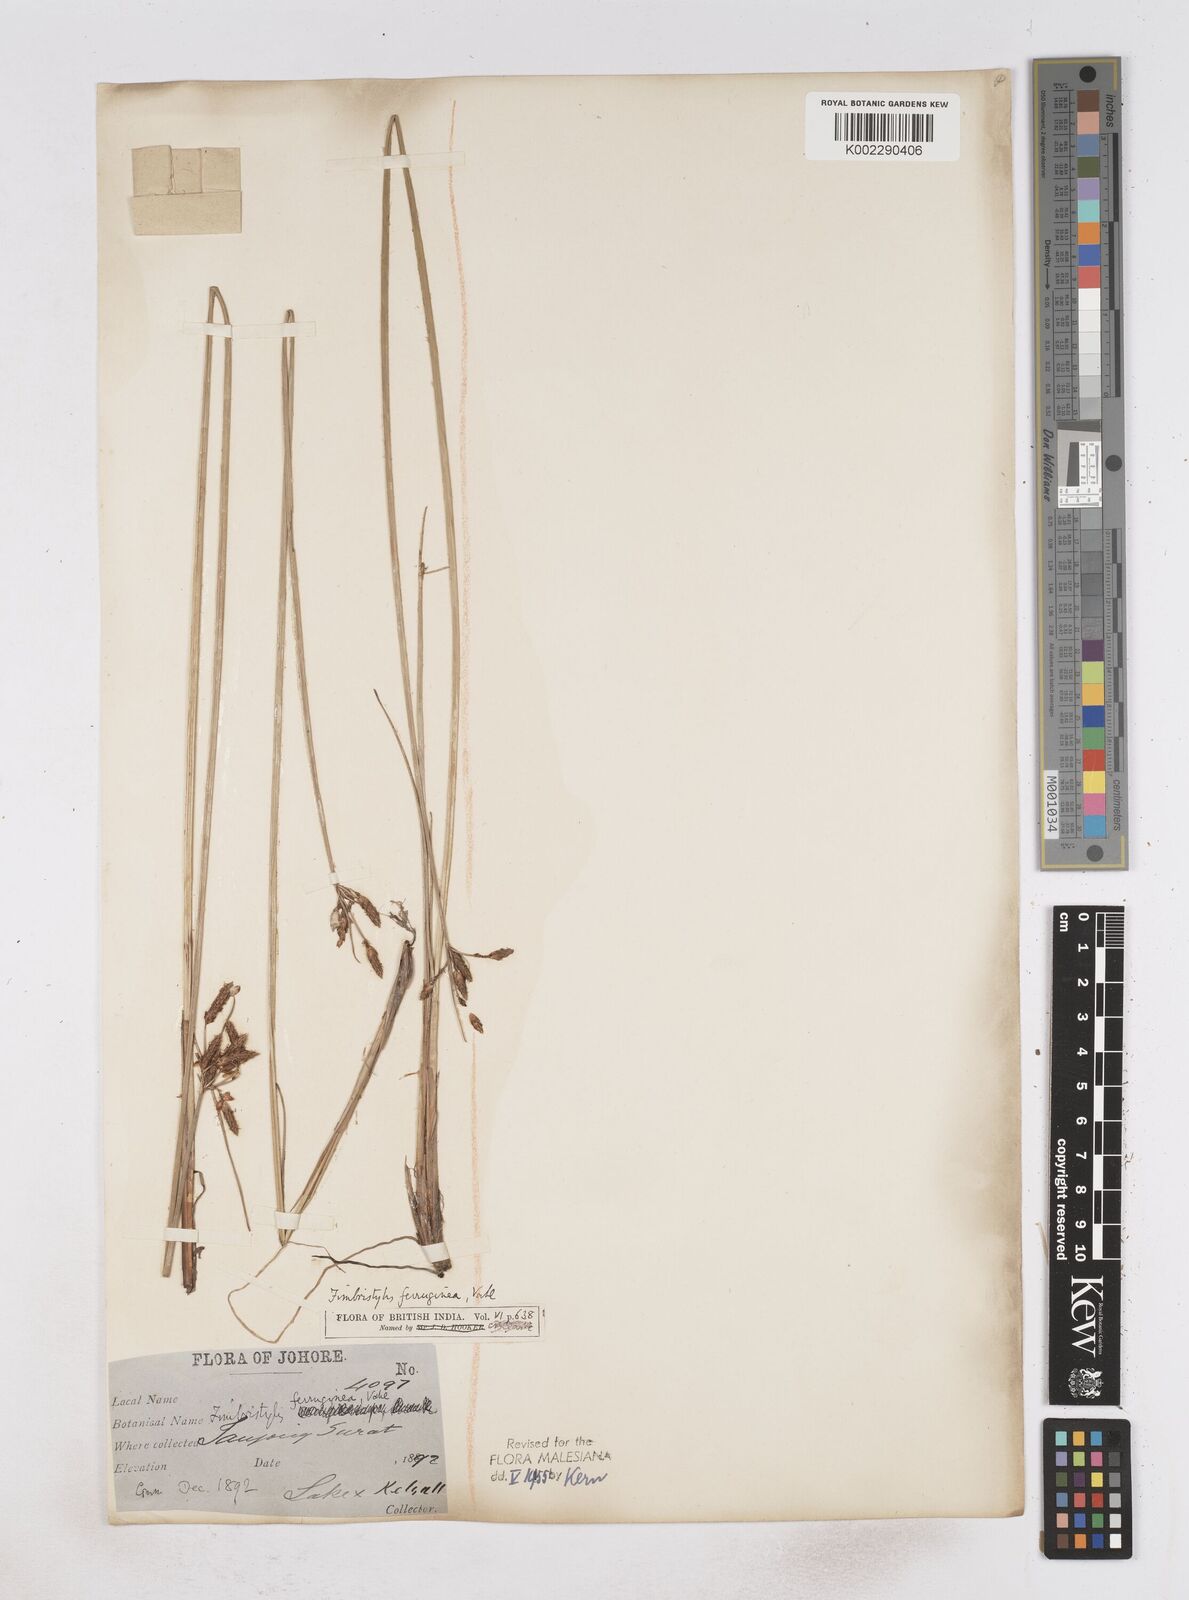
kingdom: Plantae
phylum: Tracheophyta
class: Liliopsida
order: Poales
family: Cyperaceae
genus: Fimbristylis
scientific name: Fimbristylis ferruginea
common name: West indian fimbry
